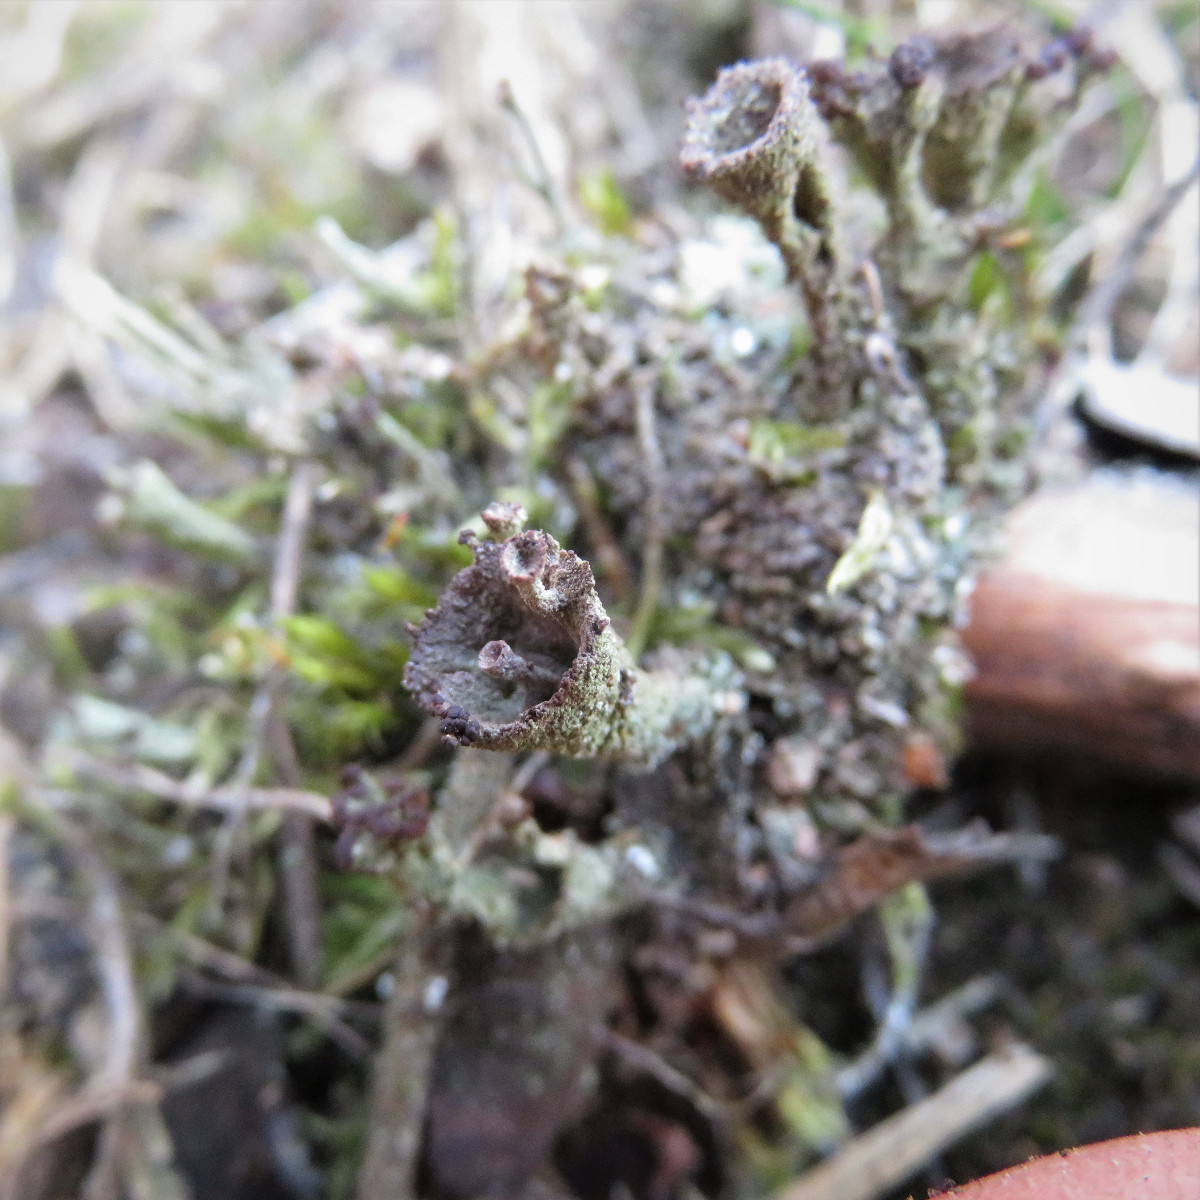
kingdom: Fungi
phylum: Ascomycota
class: Lecanoromycetes
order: Lecanorales
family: Cladoniaceae
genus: Cladonia
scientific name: Cladonia
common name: brungrøn bægerlav
